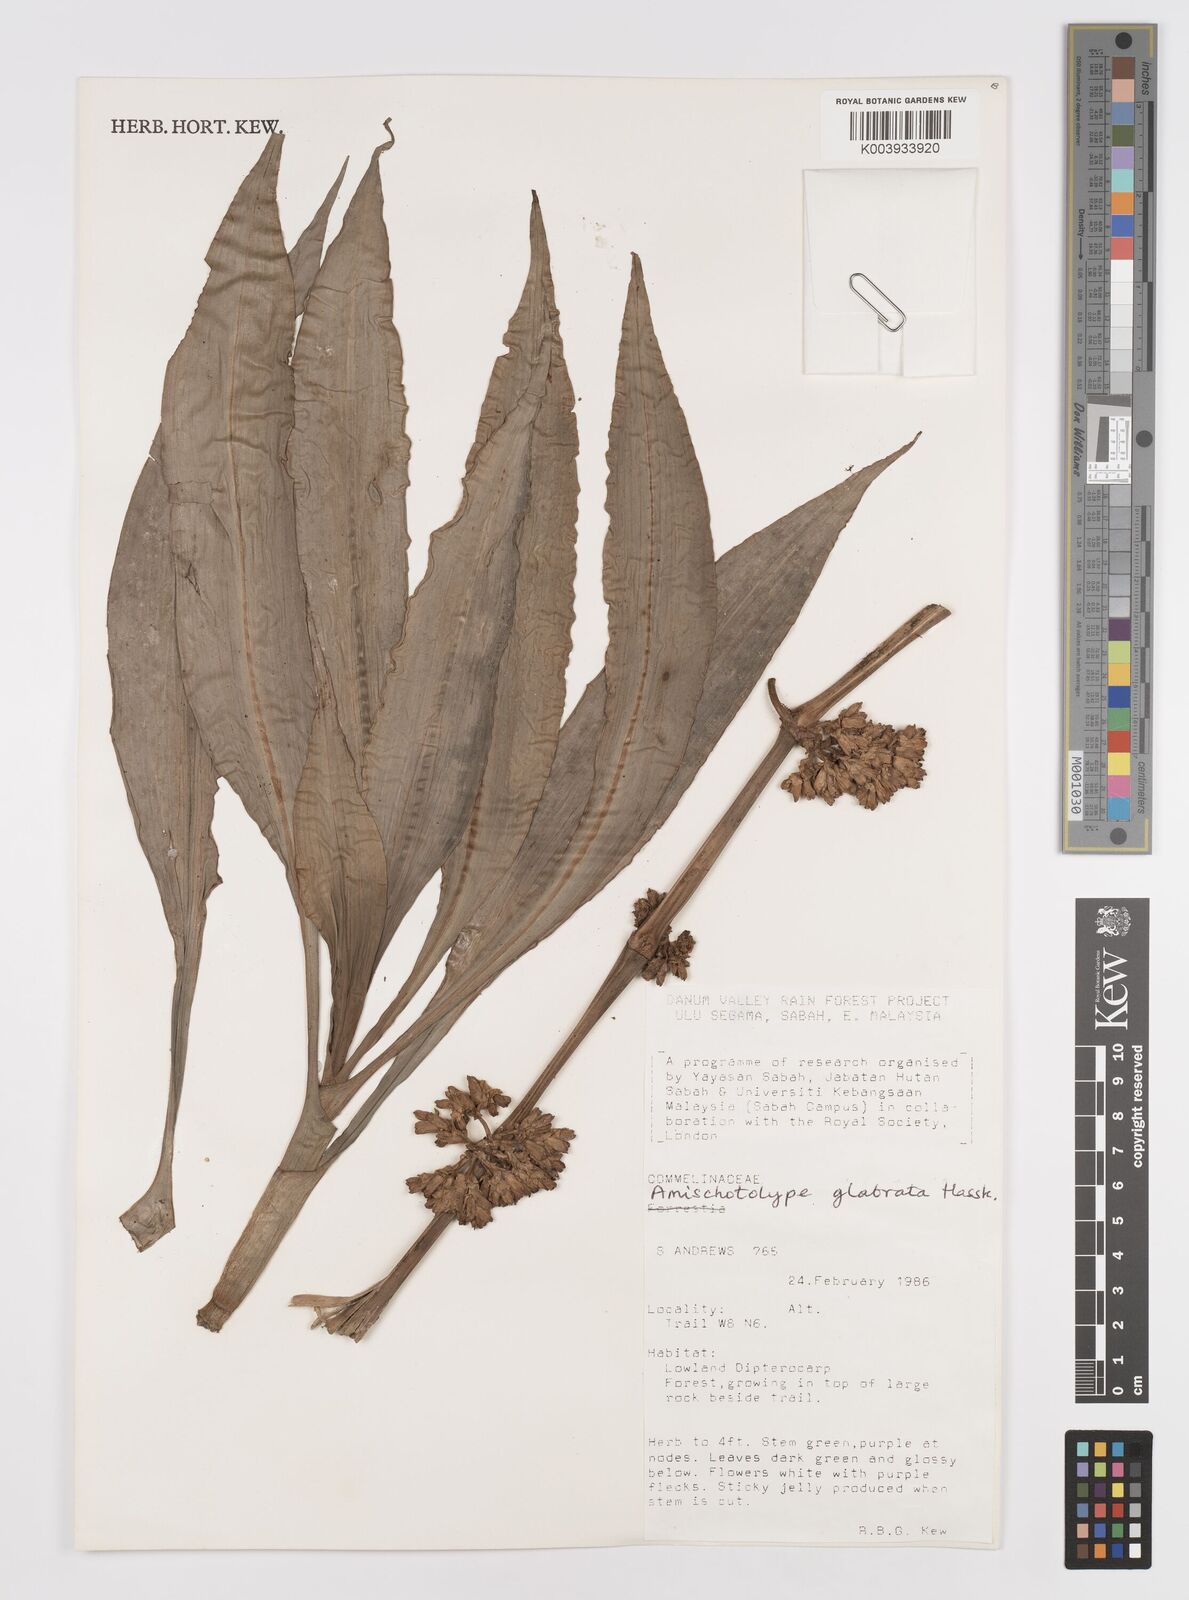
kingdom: Plantae
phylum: Tracheophyta
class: Liliopsida
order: Commelinales
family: Commelinaceae
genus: Amischotolype
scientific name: Amischotolype glabrata
